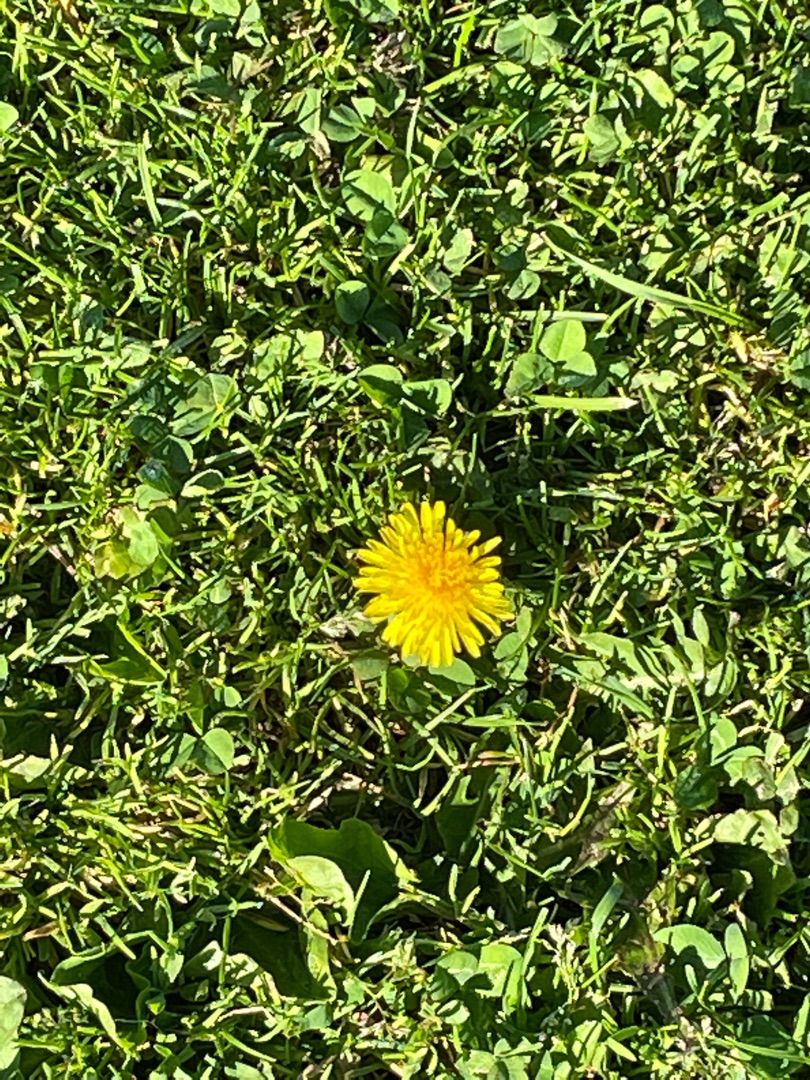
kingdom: Plantae
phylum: Tracheophyta
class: Magnoliopsida
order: Asterales
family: Asteraceae
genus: Taraxacum
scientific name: Taraxacum
